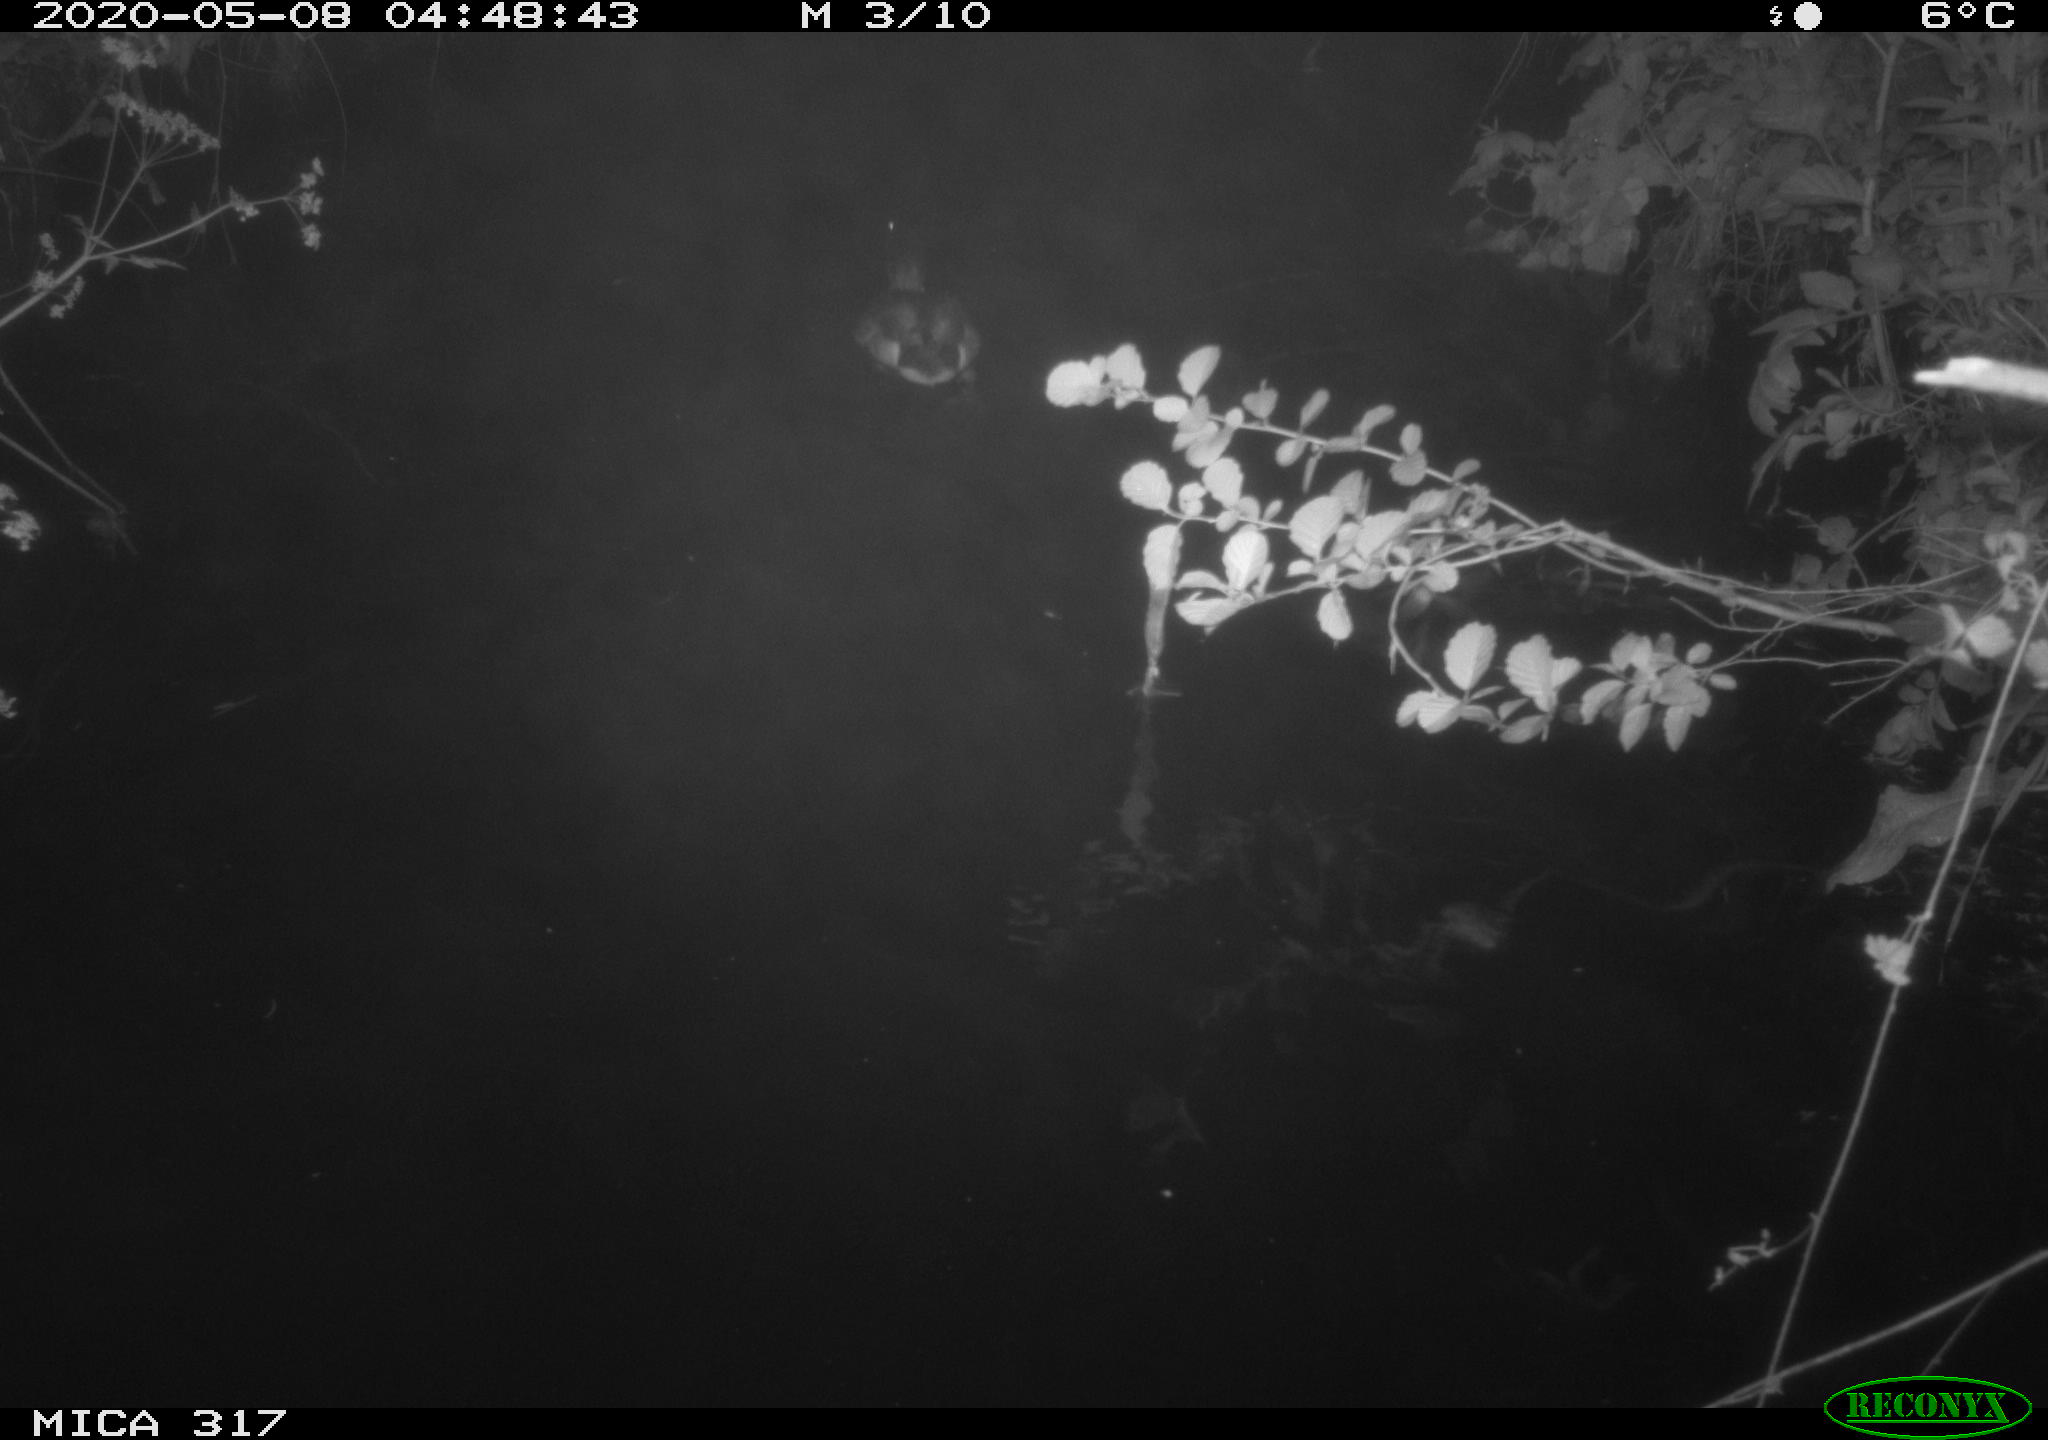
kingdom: Animalia
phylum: Chordata
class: Aves
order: Anseriformes
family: Anatidae
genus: Anas
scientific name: Anas platyrhynchos
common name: Mallard
